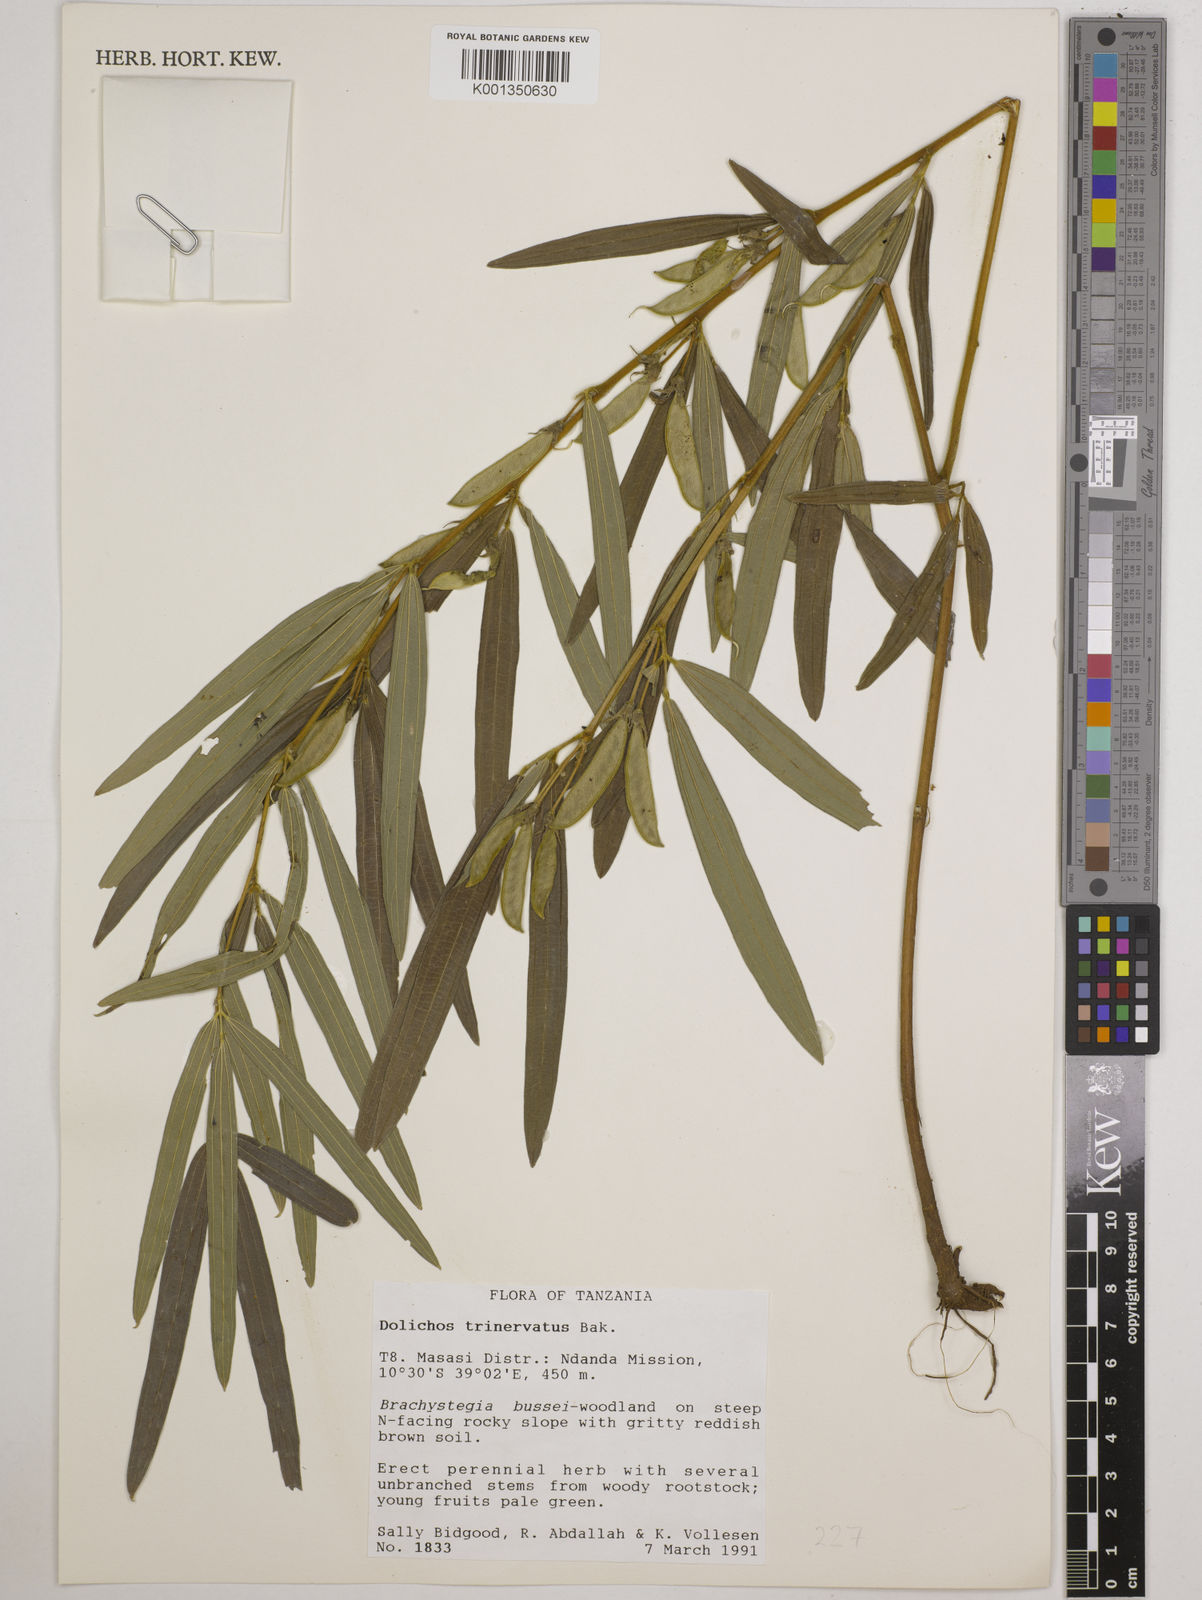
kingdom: Plantae
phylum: Tracheophyta
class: Magnoliopsida
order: Fabales
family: Fabaceae
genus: Dolichos
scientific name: Dolichos trinervatus
